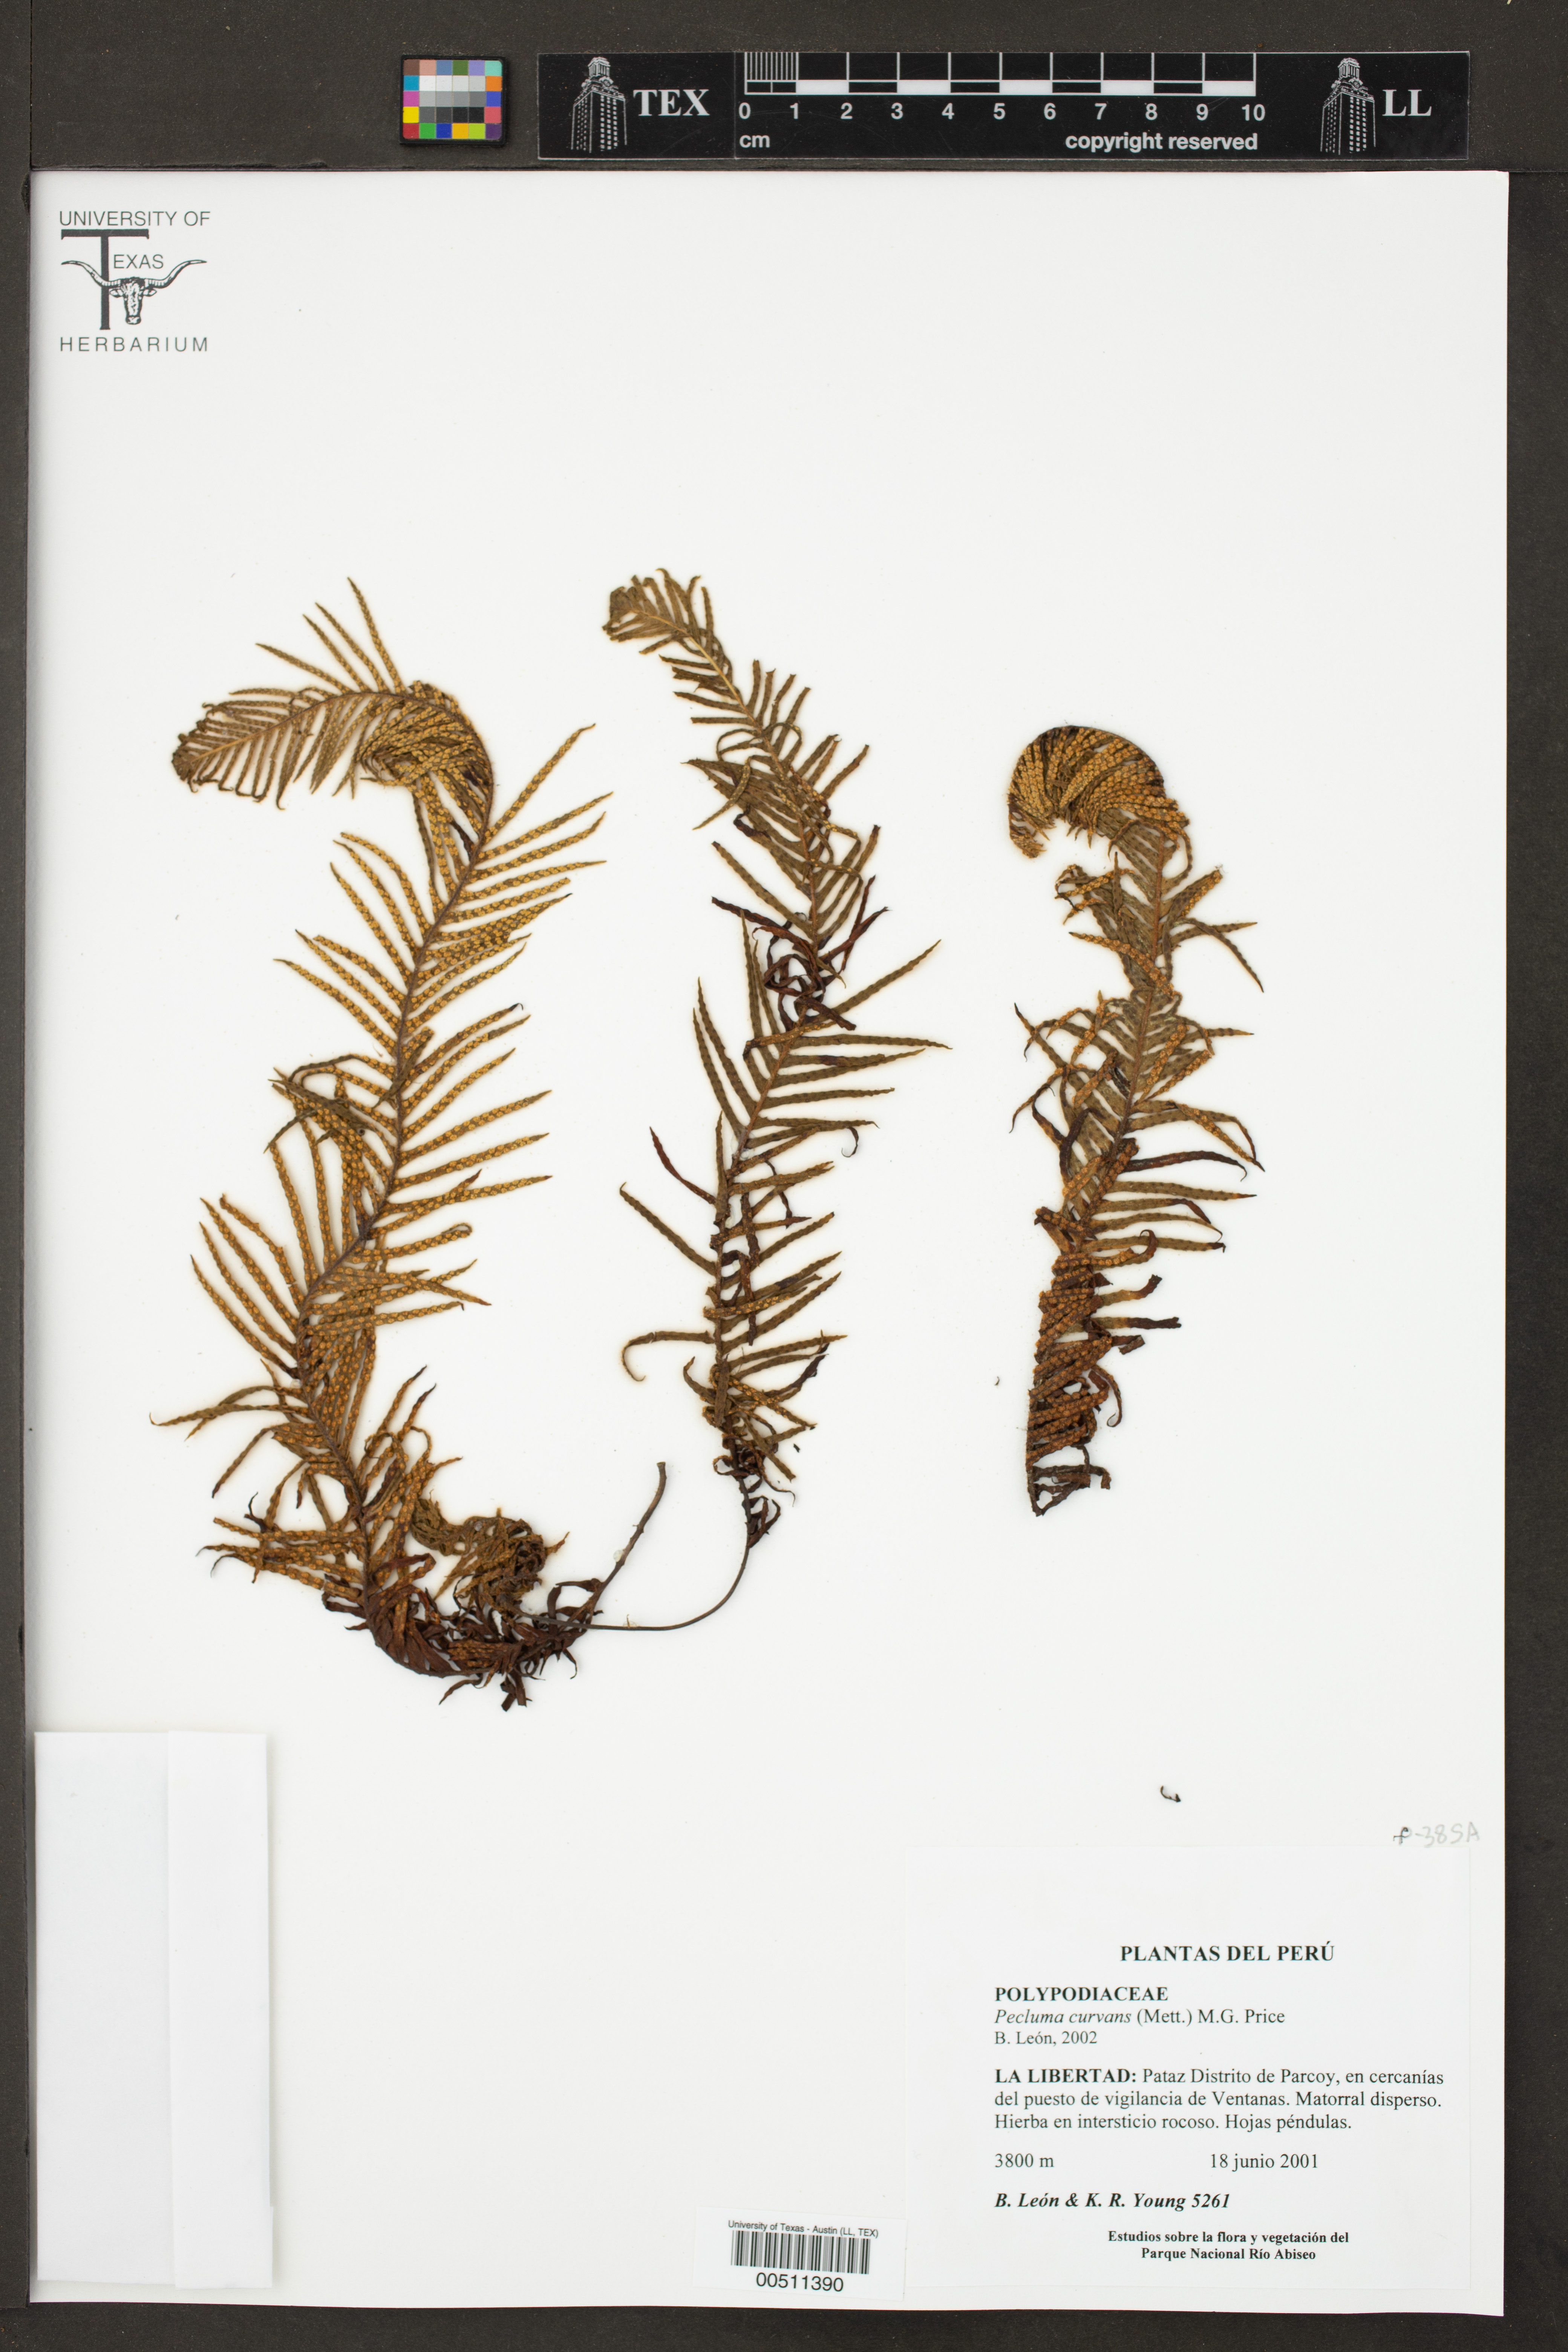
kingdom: Plantae
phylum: Tracheophyta
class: Polypodiopsida
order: Polypodiales
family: Polypodiaceae
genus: Pecluma
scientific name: Pecluma curvans
